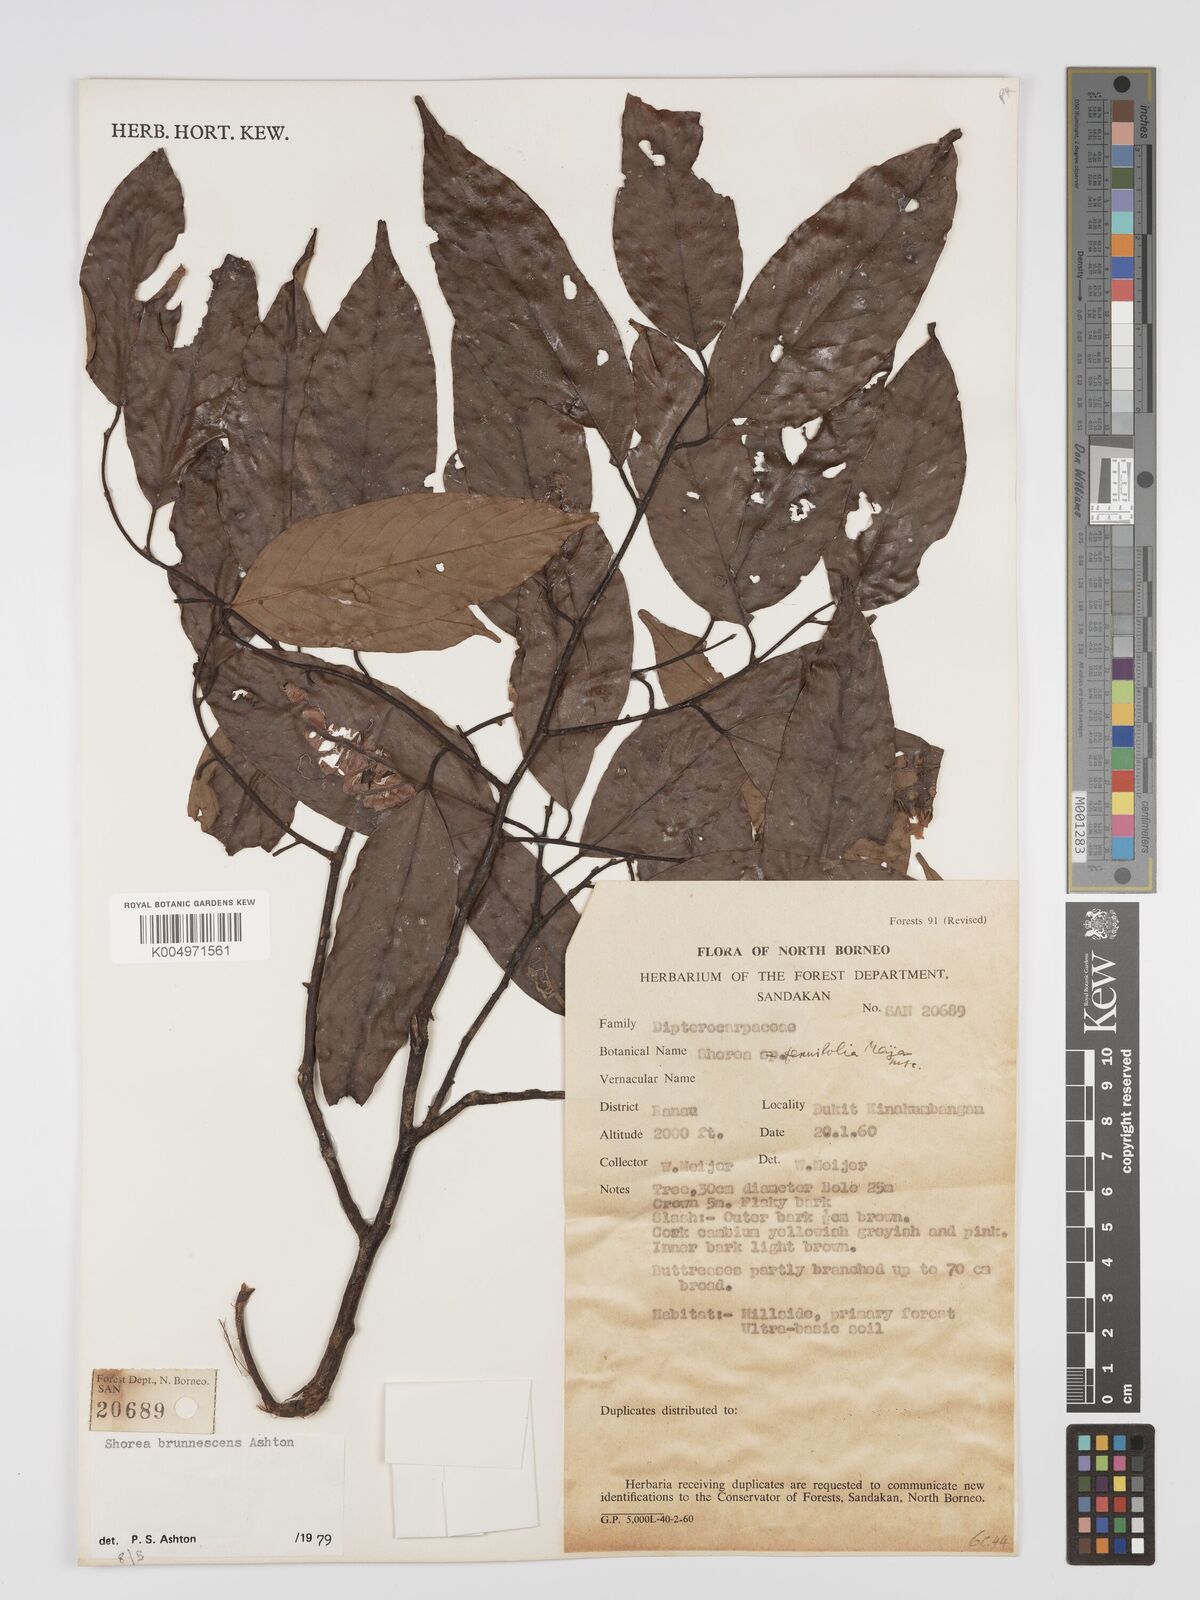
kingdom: Plantae
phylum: Tracheophyta
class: Magnoliopsida
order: Malvales
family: Dipterocarpaceae
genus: Shorea
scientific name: Shorea brunnescens
